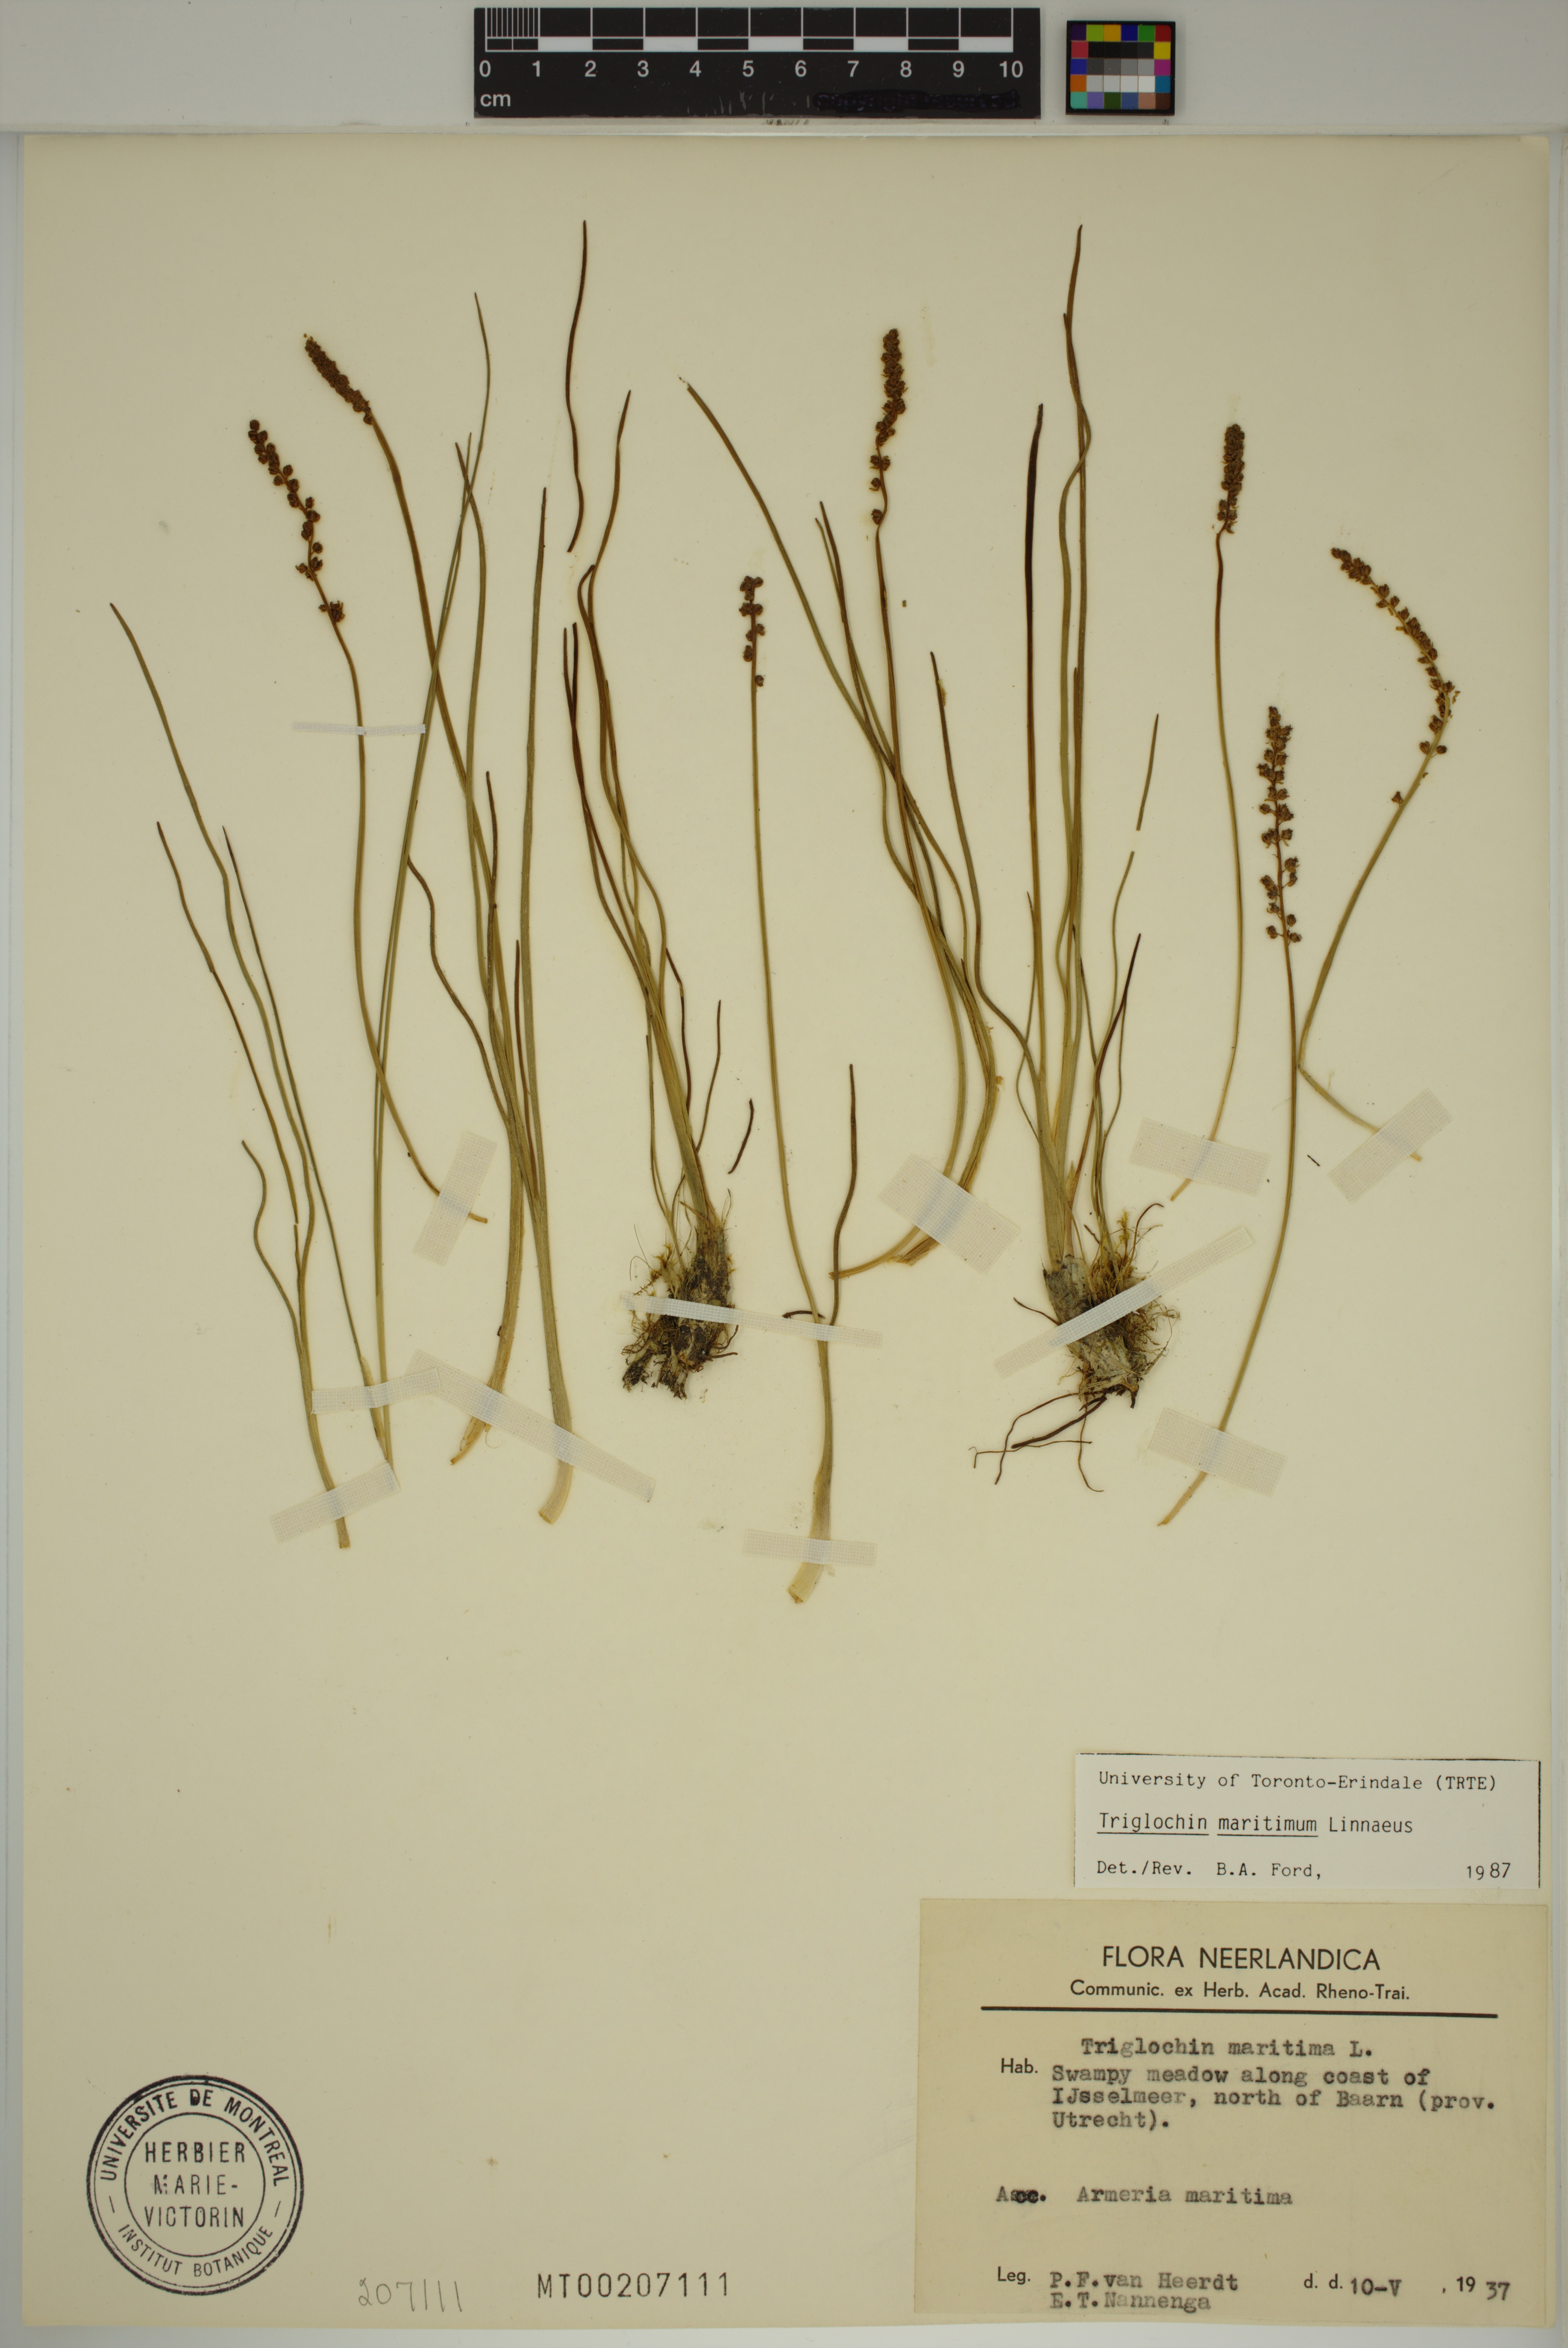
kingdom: Plantae
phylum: Tracheophyta
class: Liliopsida
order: Alismatales
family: Juncaginaceae
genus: Triglochin
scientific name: Triglochin maritima
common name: Sea arrowgrass
